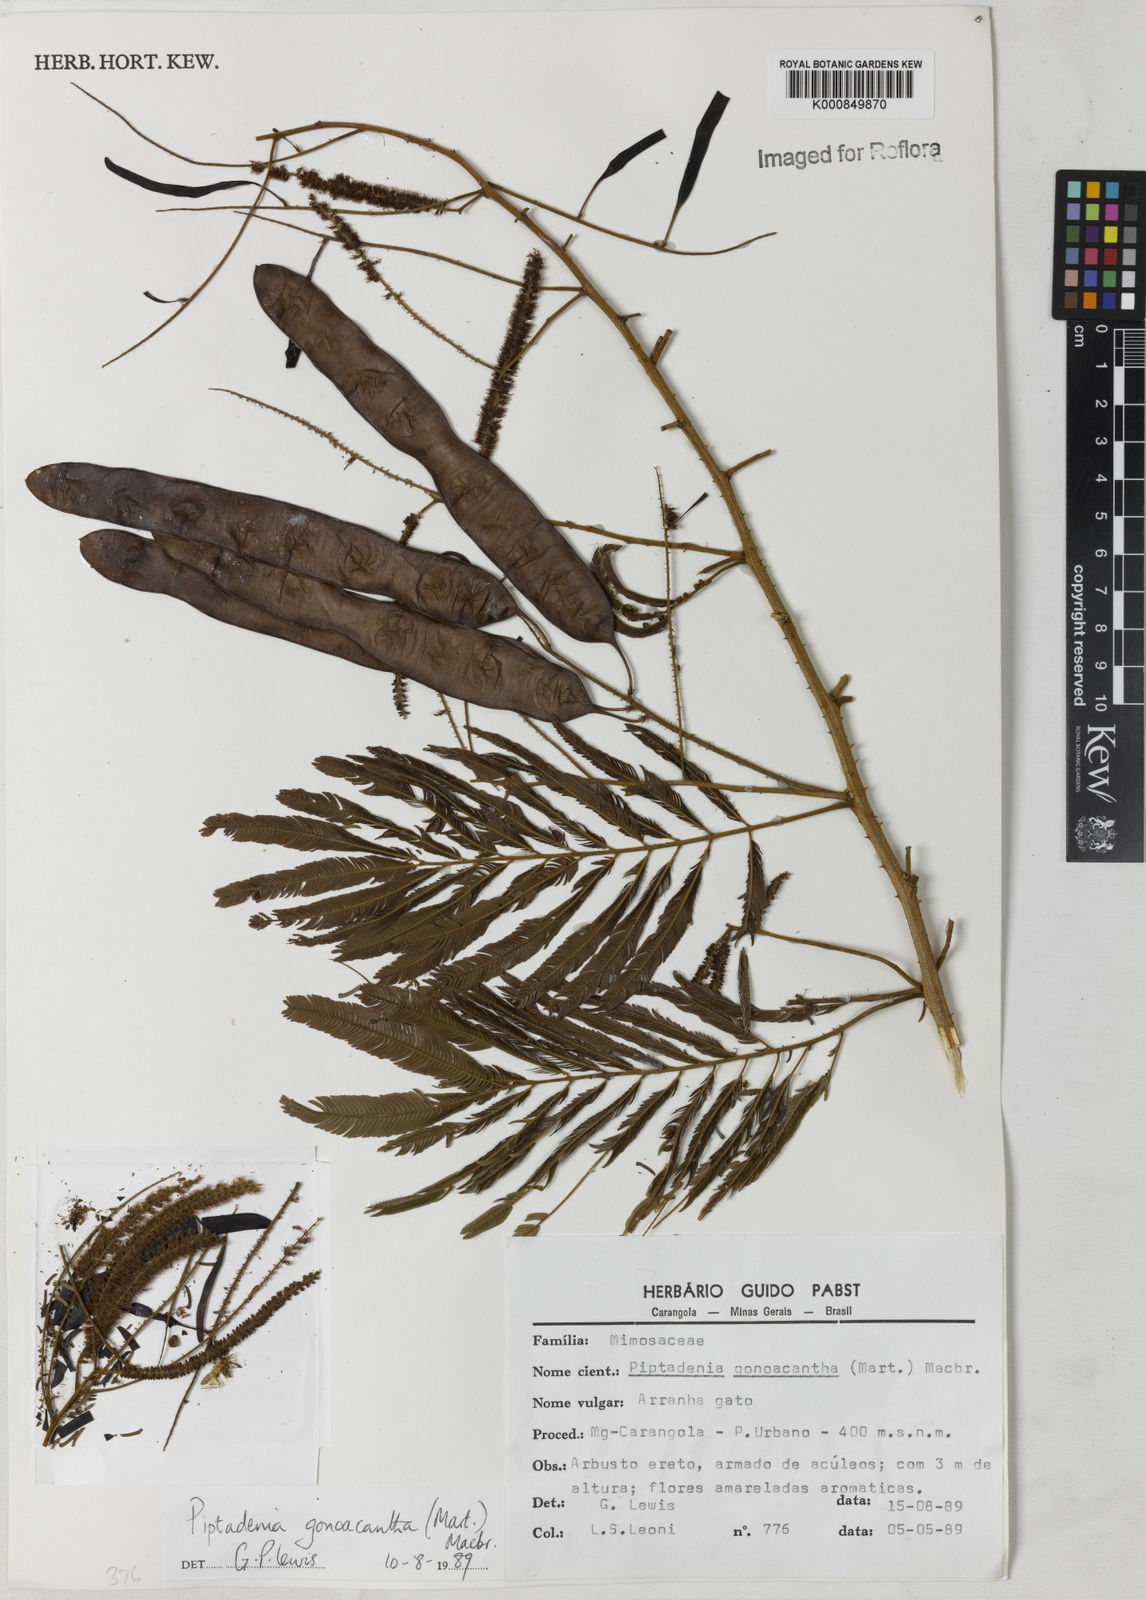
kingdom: Plantae
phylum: Tracheophyta
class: Magnoliopsida
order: Fabales
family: Fabaceae
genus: Piptadenia
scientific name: Piptadenia gonoacantha
